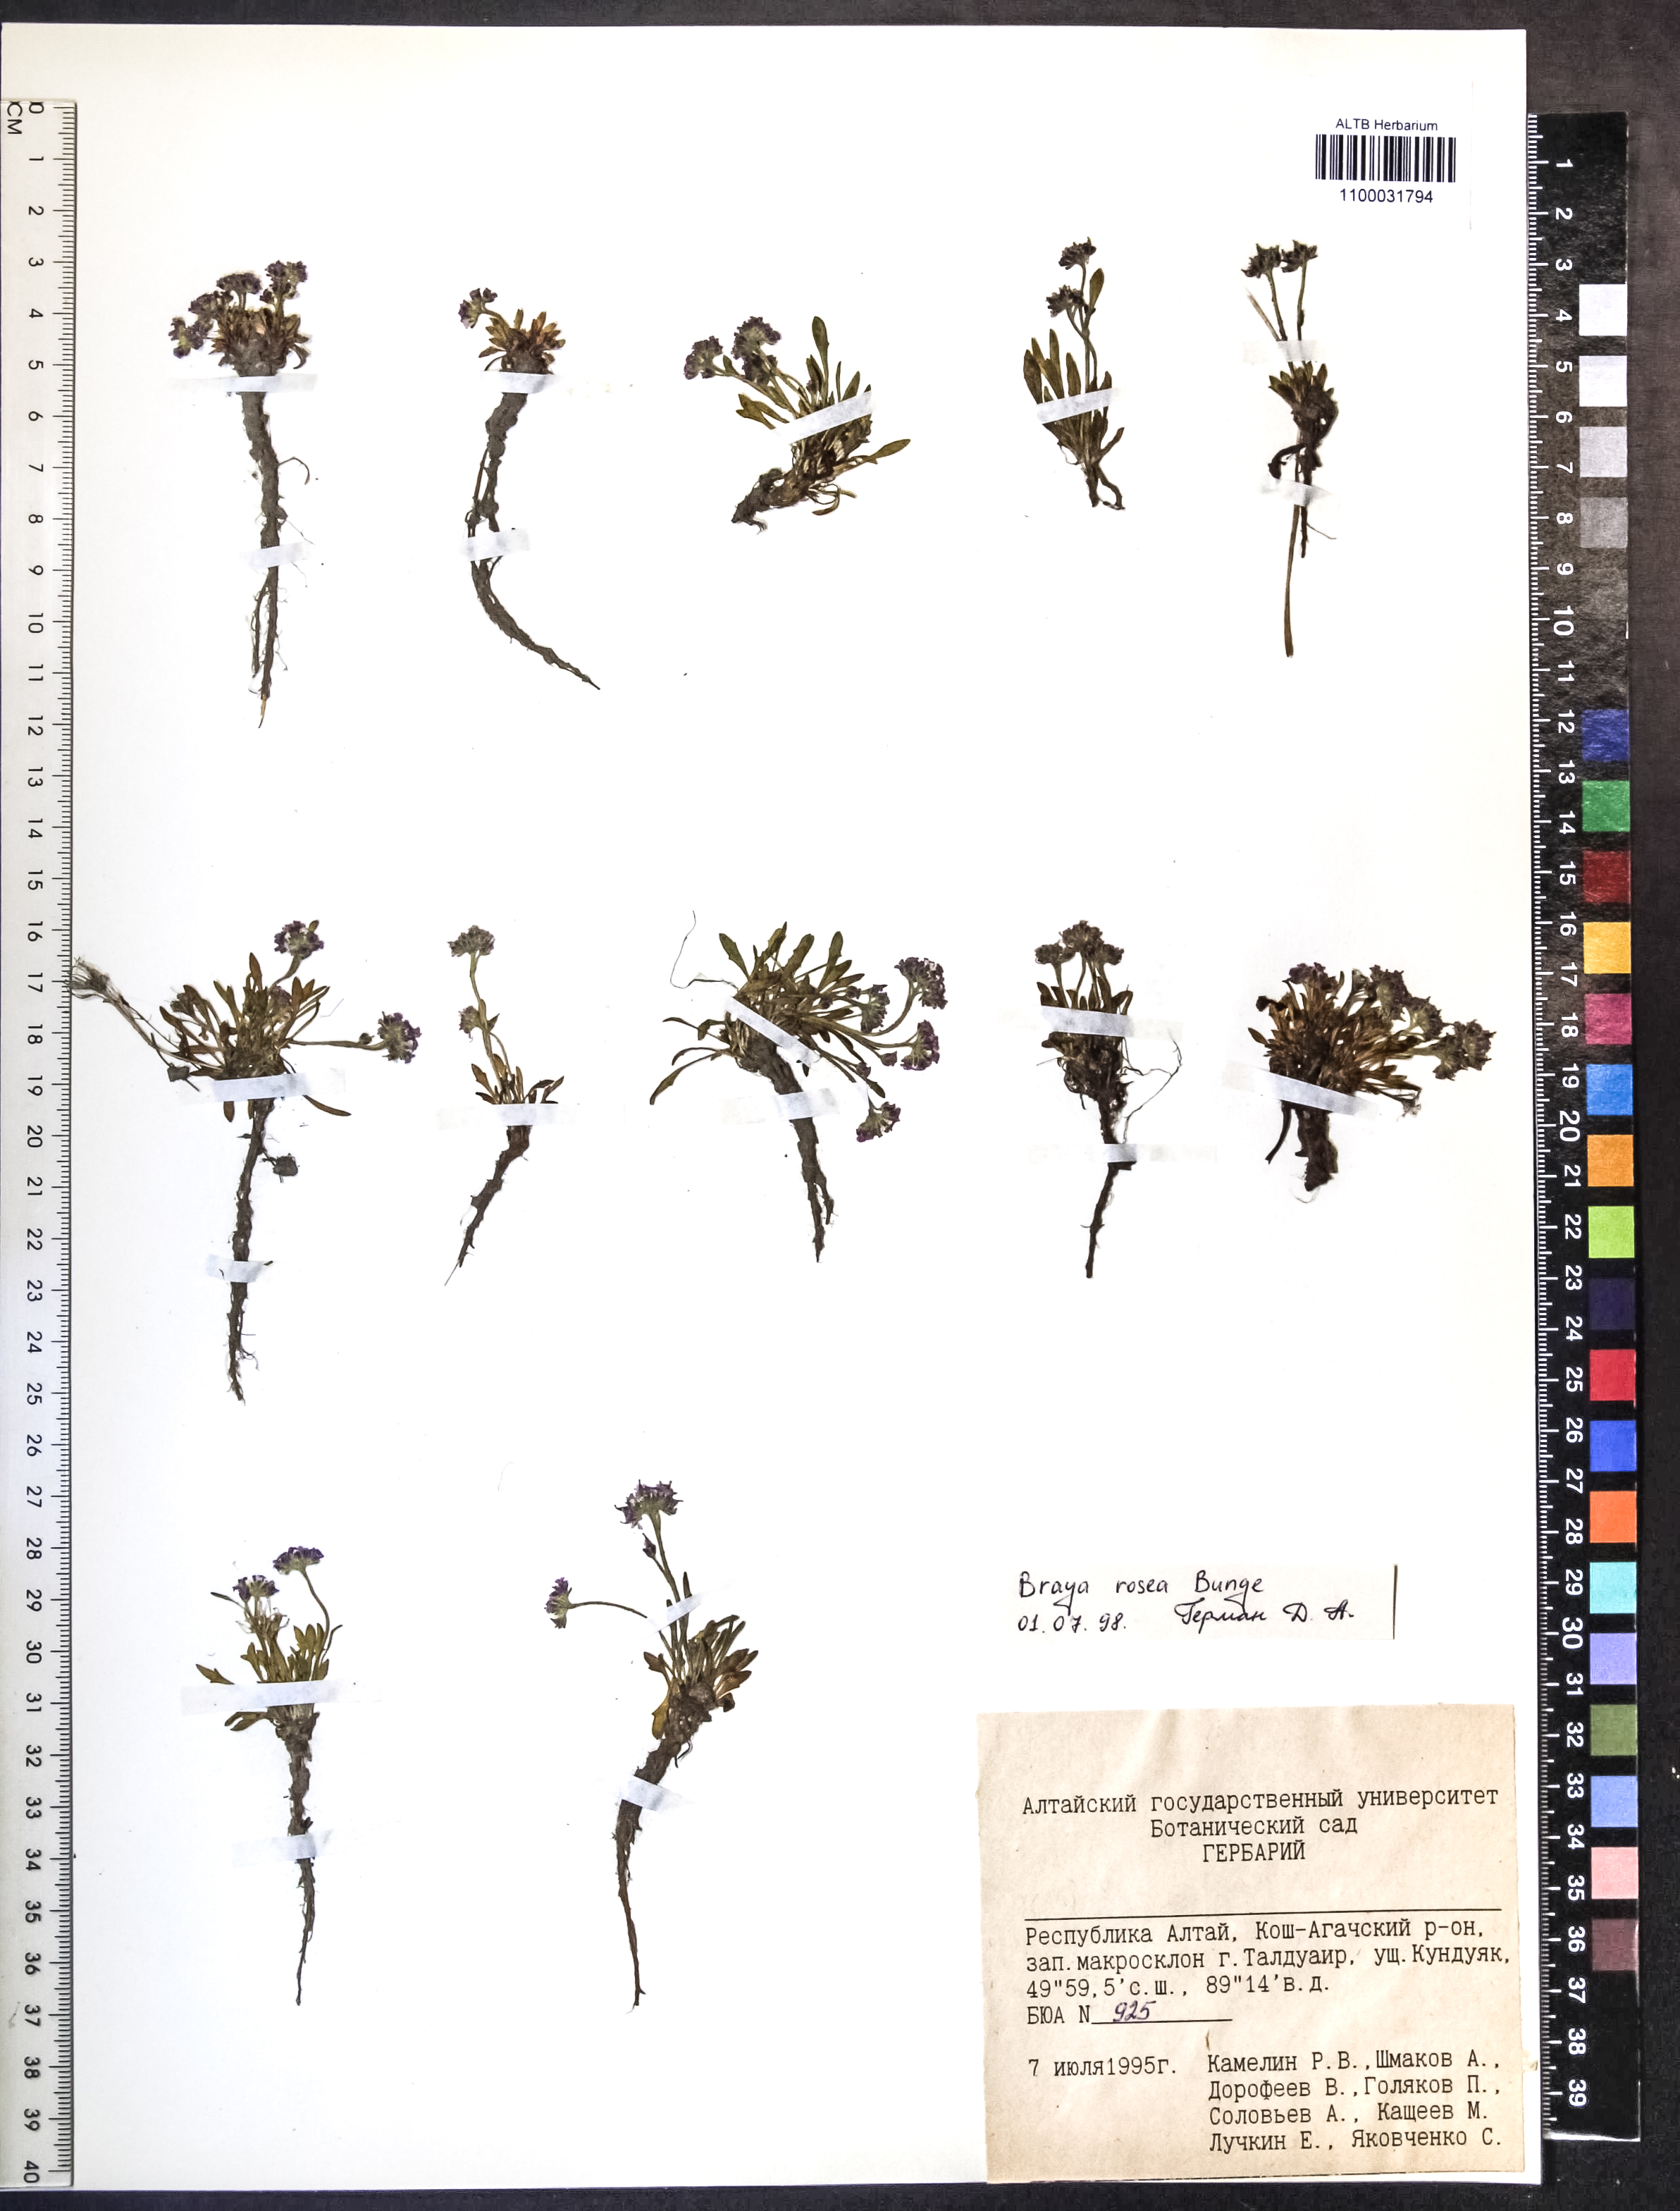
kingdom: Plantae
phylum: Tracheophyta
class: Magnoliopsida
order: Brassicales
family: Brassicaceae
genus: Braya
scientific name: Braya rosea
